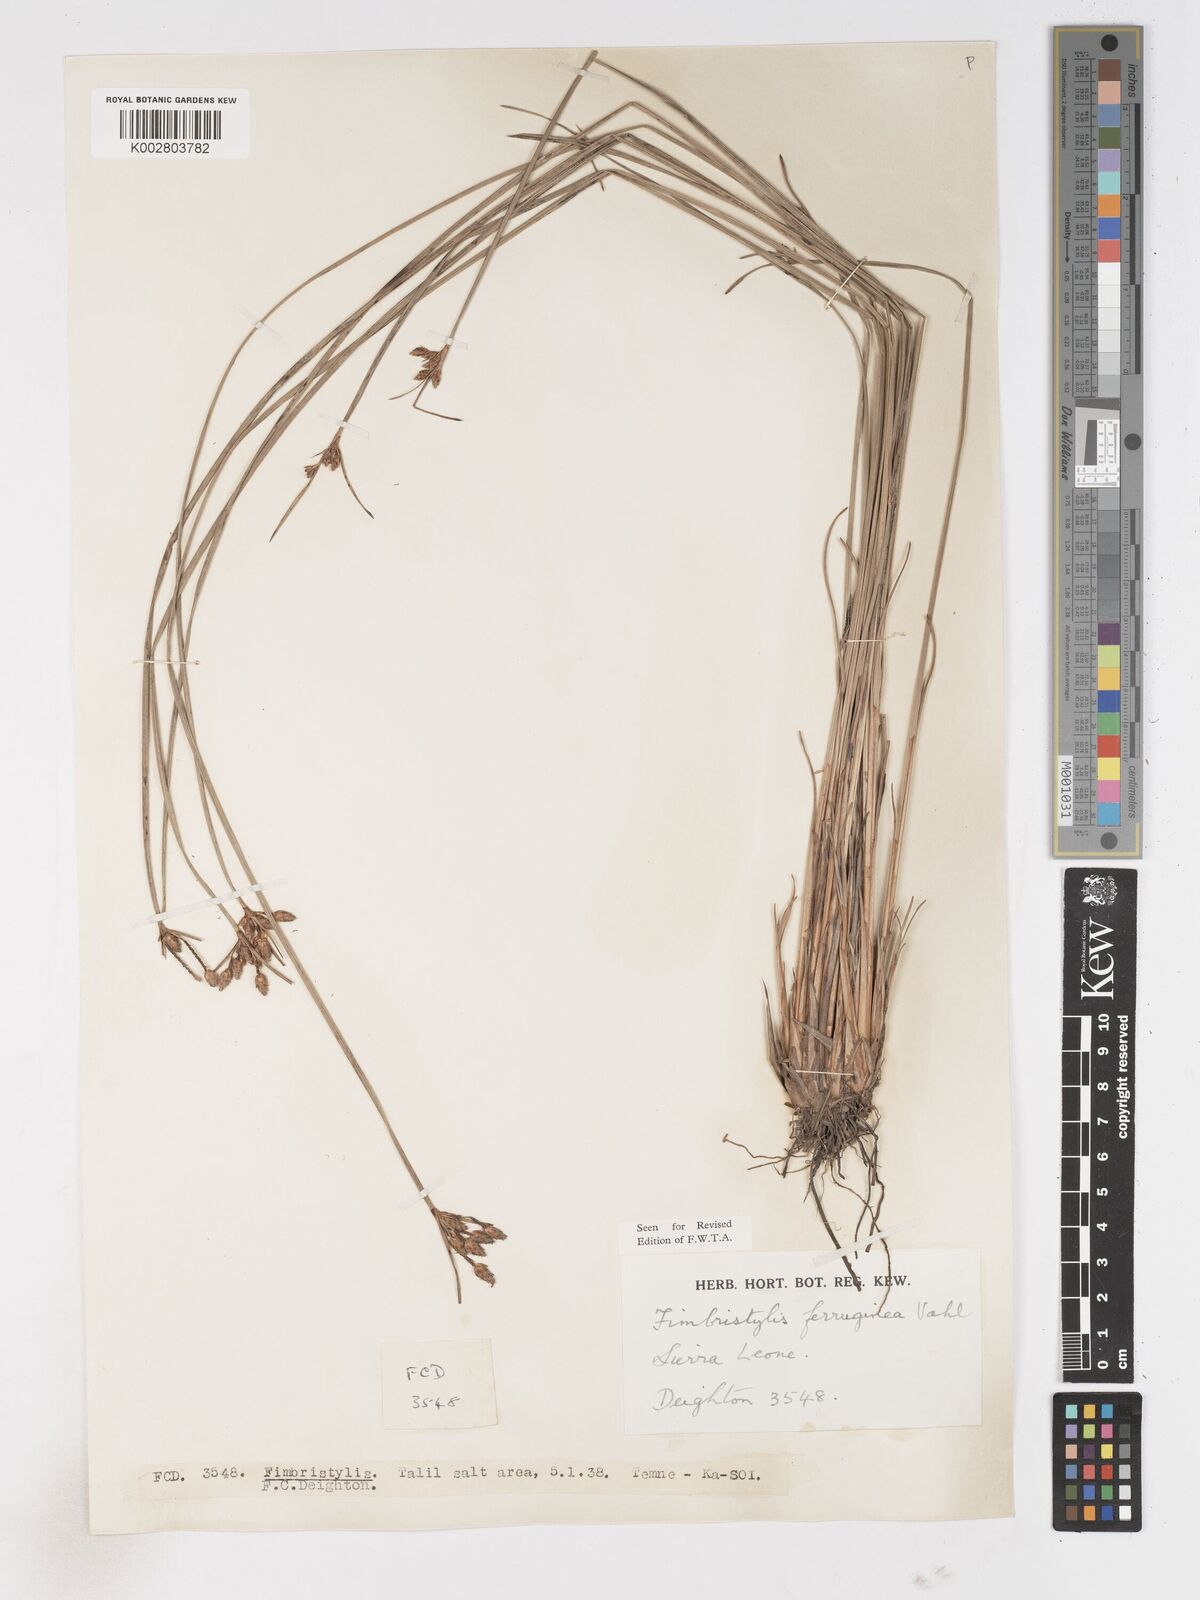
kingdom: Plantae
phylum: Tracheophyta
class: Liliopsida
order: Poales
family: Cyperaceae
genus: Fimbristylis
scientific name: Fimbristylis ferruginea
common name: West indian fimbry
